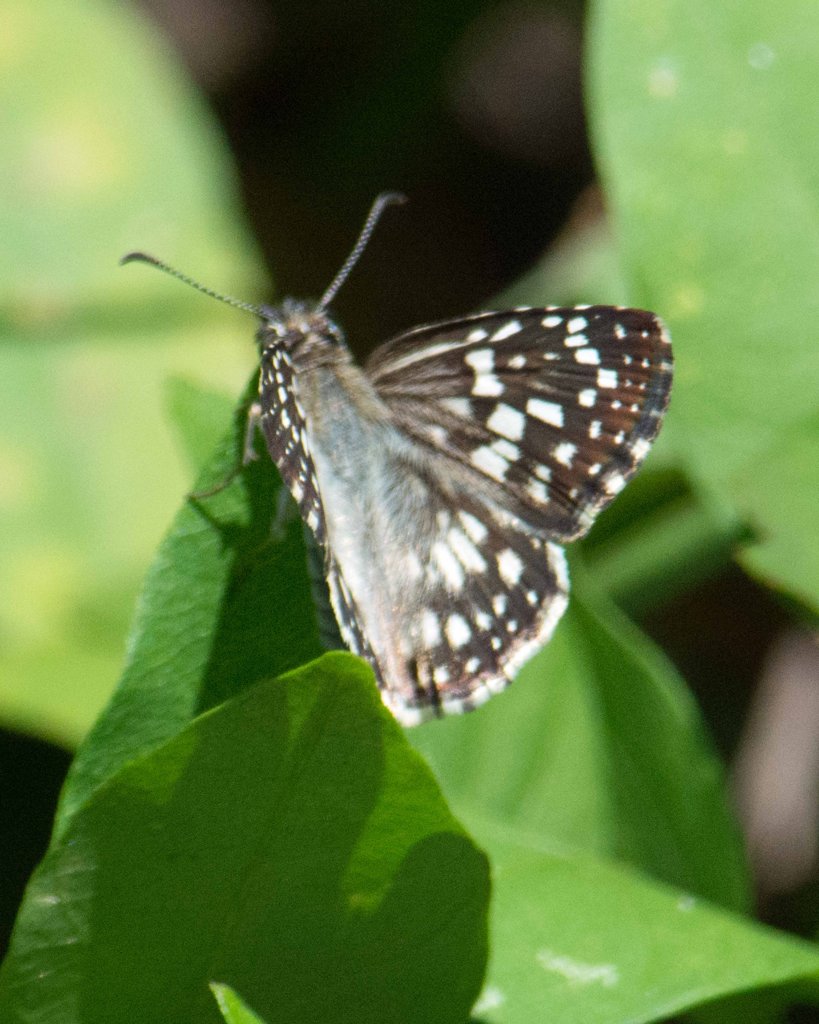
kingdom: Animalia
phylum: Arthropoda
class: Insecta
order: Lepidoptera
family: Hesperiidae
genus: Pyrgus
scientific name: Pyrgus oileus
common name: Tropical Checkered-Skipper
